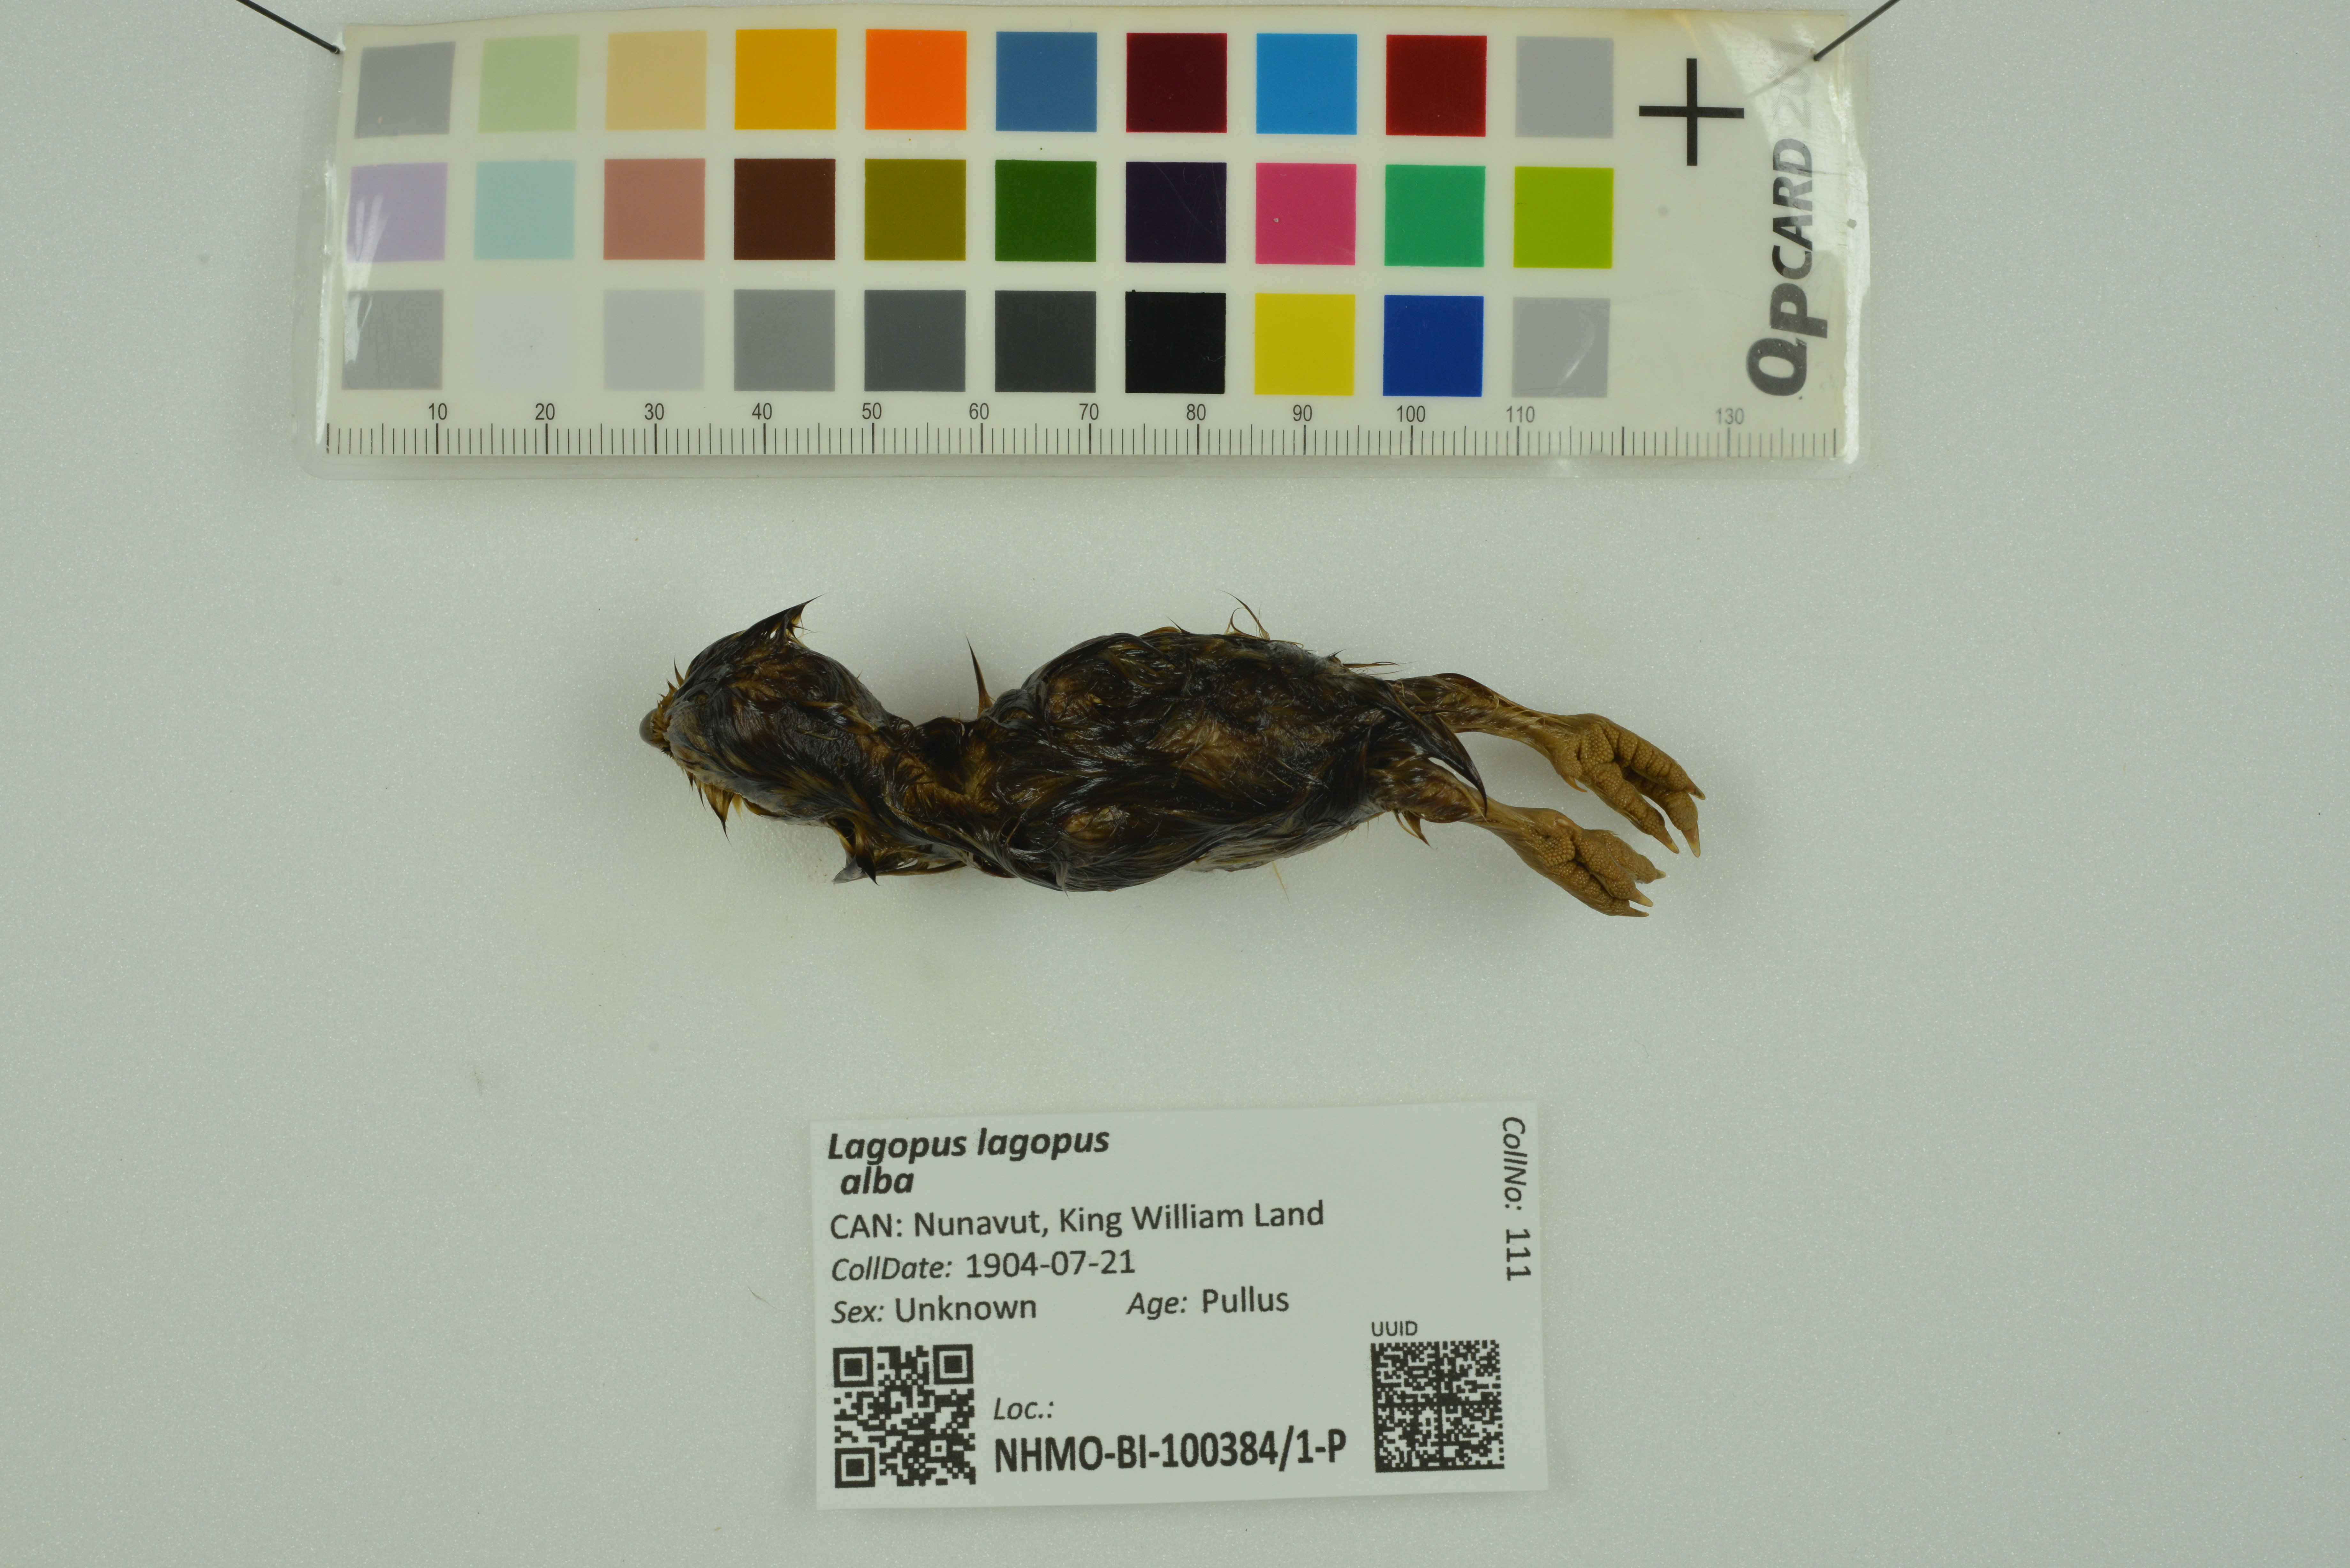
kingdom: Animalia
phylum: Chordata
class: Aves
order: Galliformes
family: Phasianidae
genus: Lagopus
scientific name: Lagopus lagopus
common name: Willow ptarmigan
